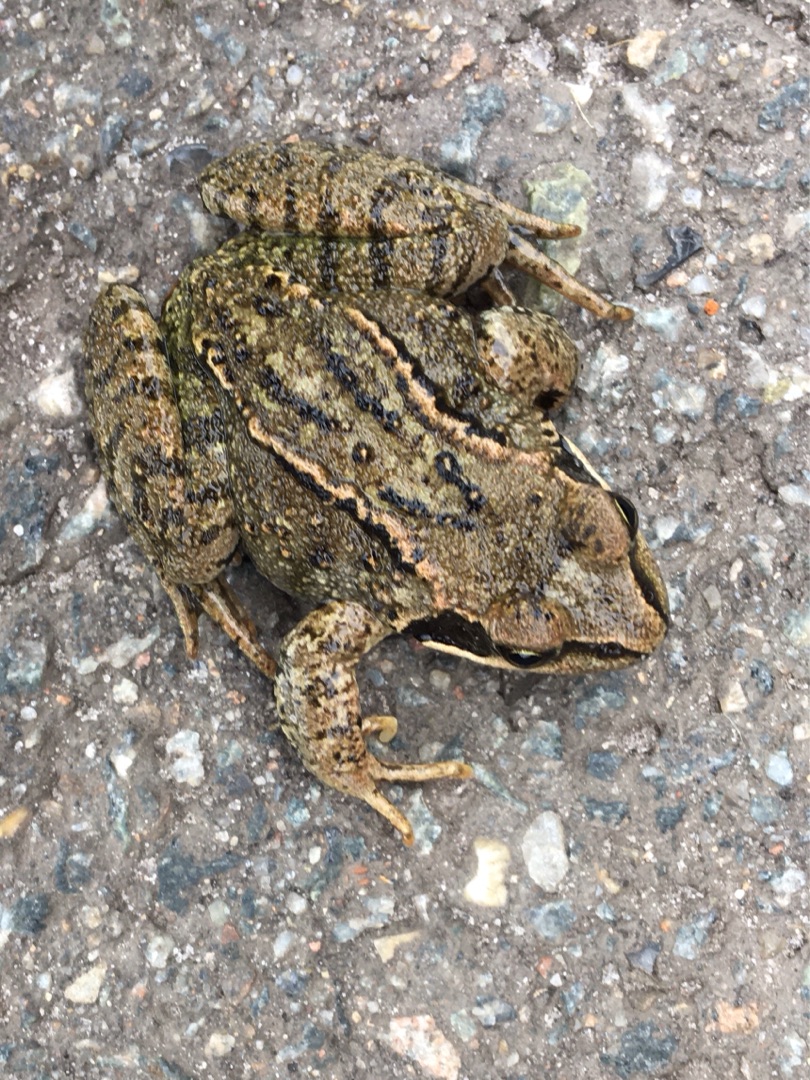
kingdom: Animalia
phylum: Chordata
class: Amphibia
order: Anura
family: Ranidae
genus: Rana
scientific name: Rana temporaria
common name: Butsnudet frø
